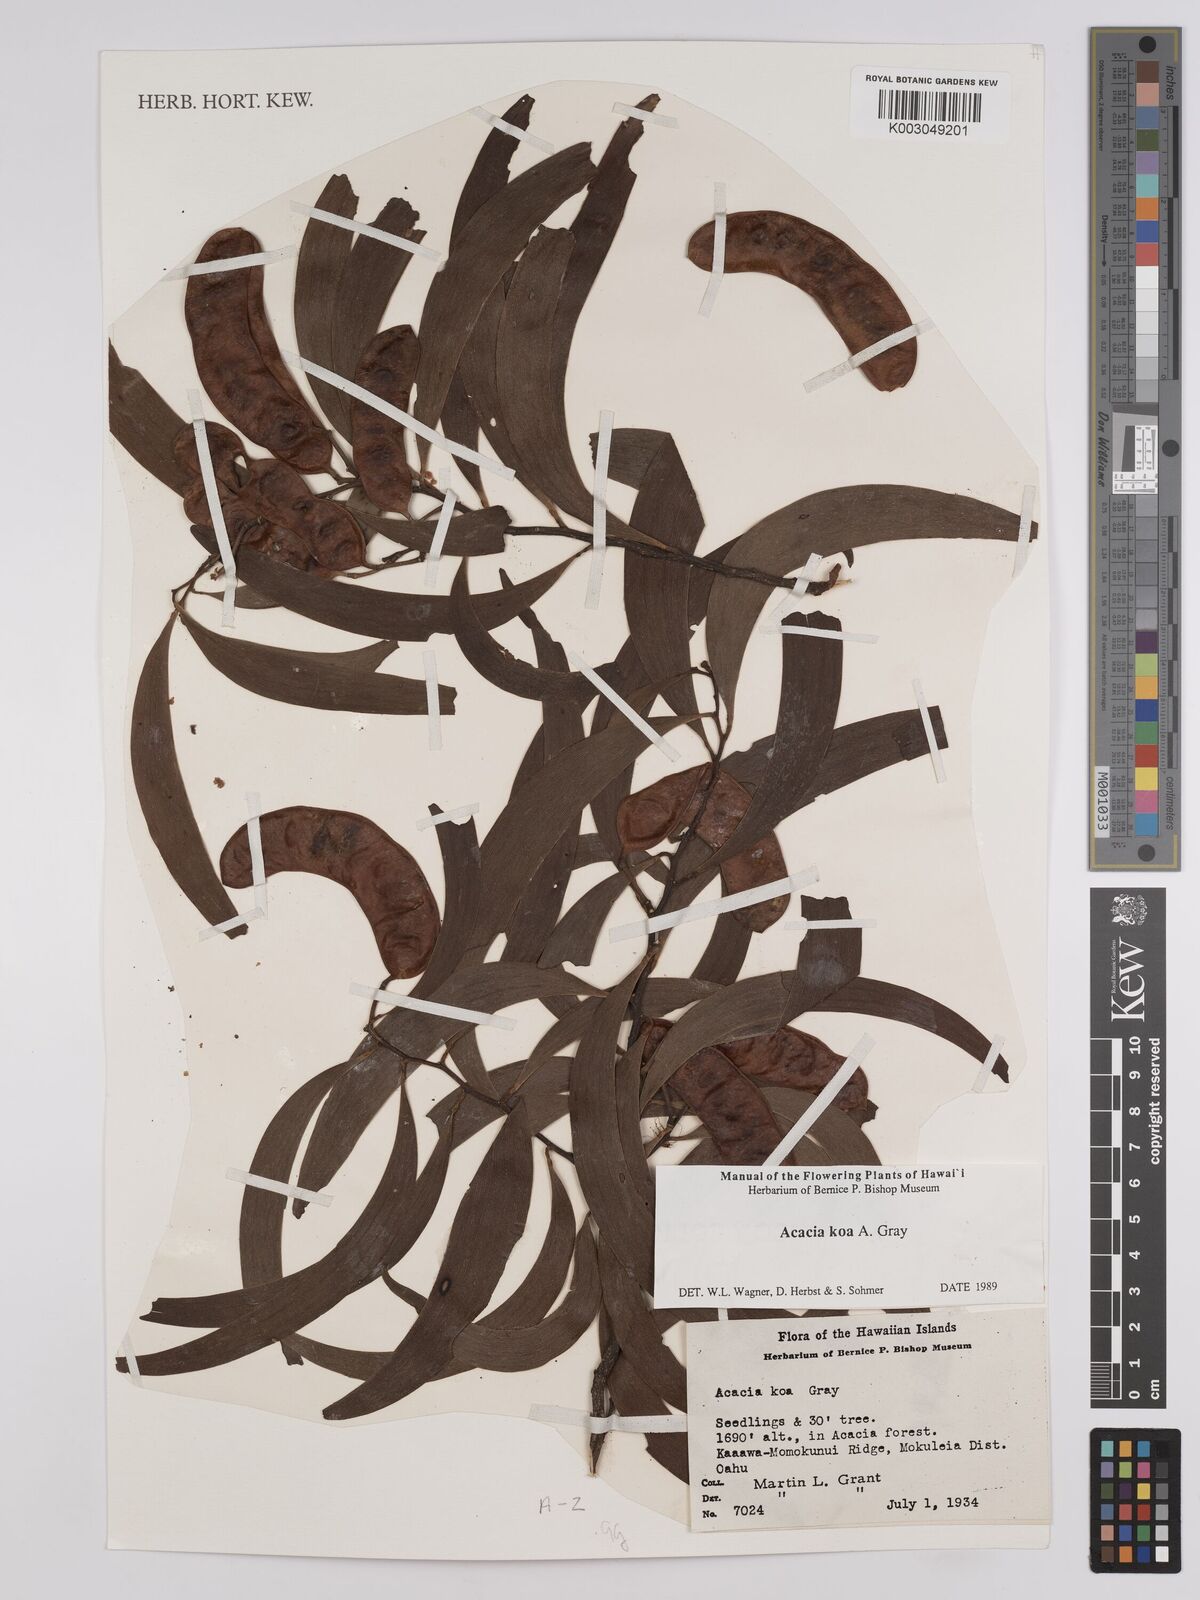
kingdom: Plantae
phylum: Tracheophyta
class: Magnoliopsida
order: Fabales
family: Fabaceae
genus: Acacia
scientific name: Acacia koa
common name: Gray koa
